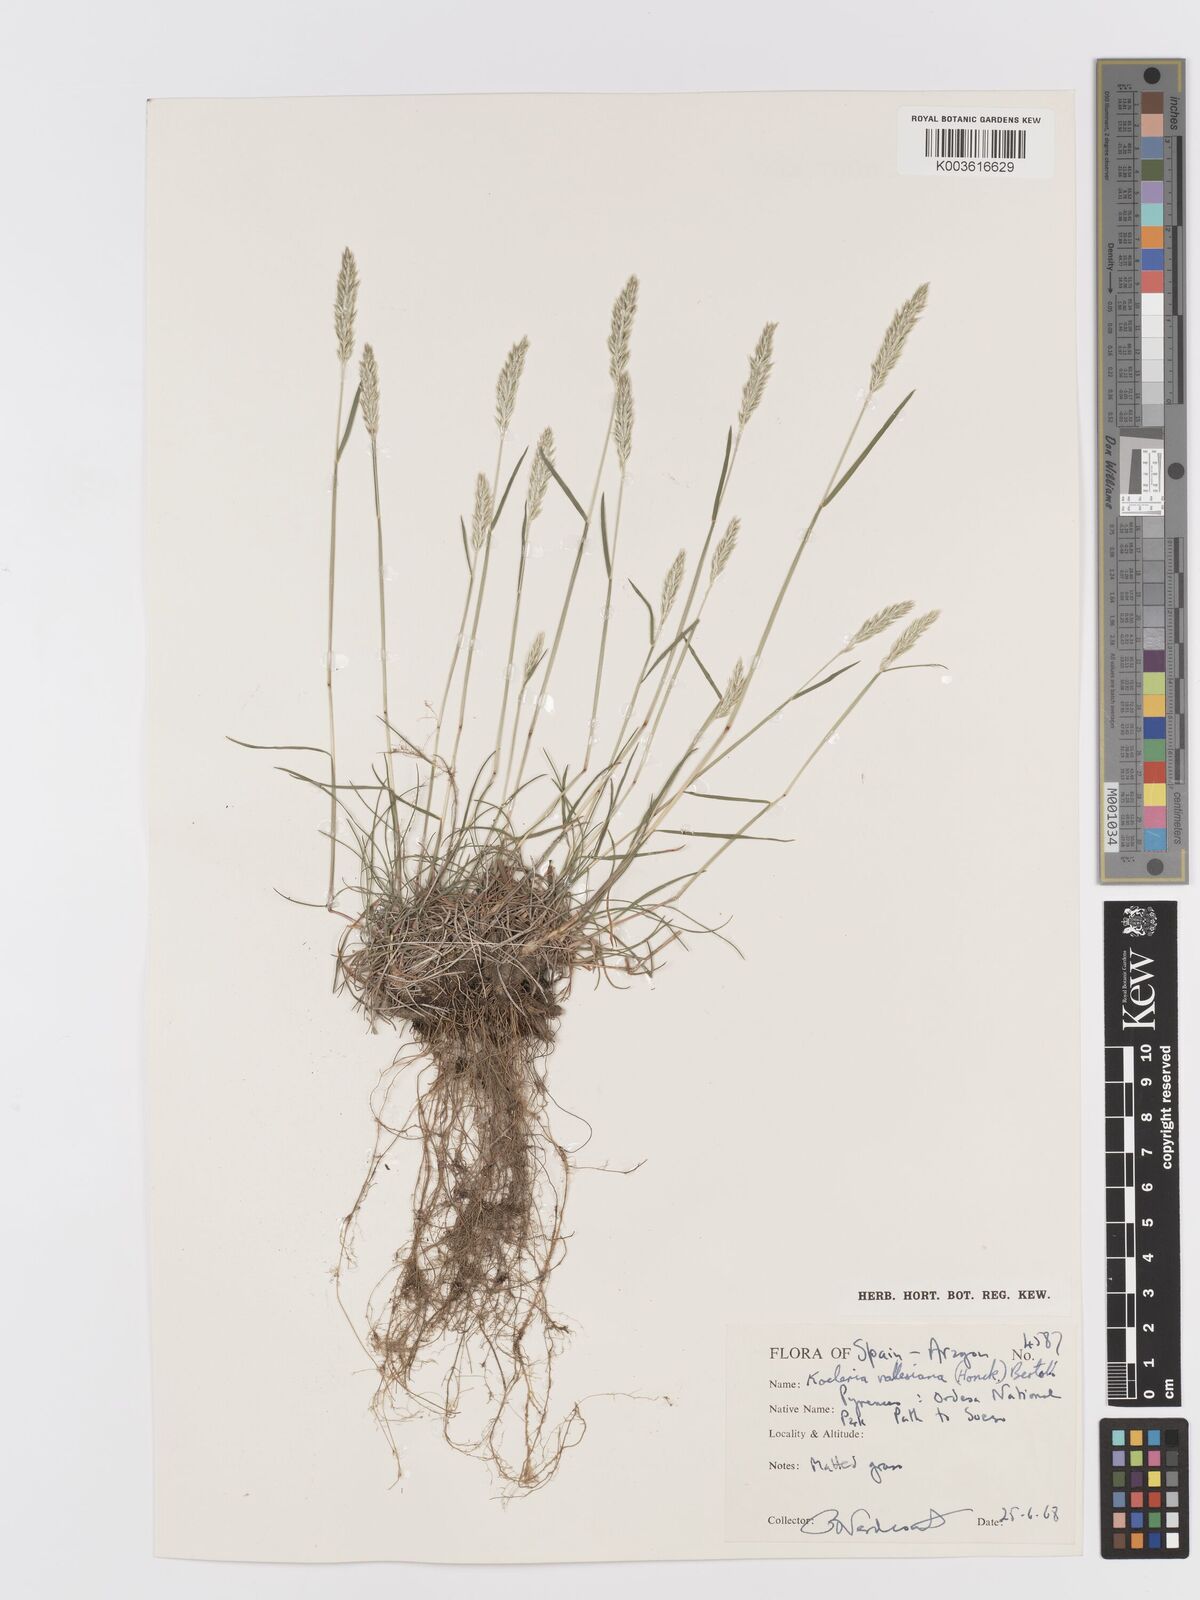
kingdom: Plantae
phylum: Tracheophyta
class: Liliopsida
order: Poales
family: Poaceae
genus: Koeleria
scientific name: Koeleria vallesiana
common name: Somerset hair-grass
